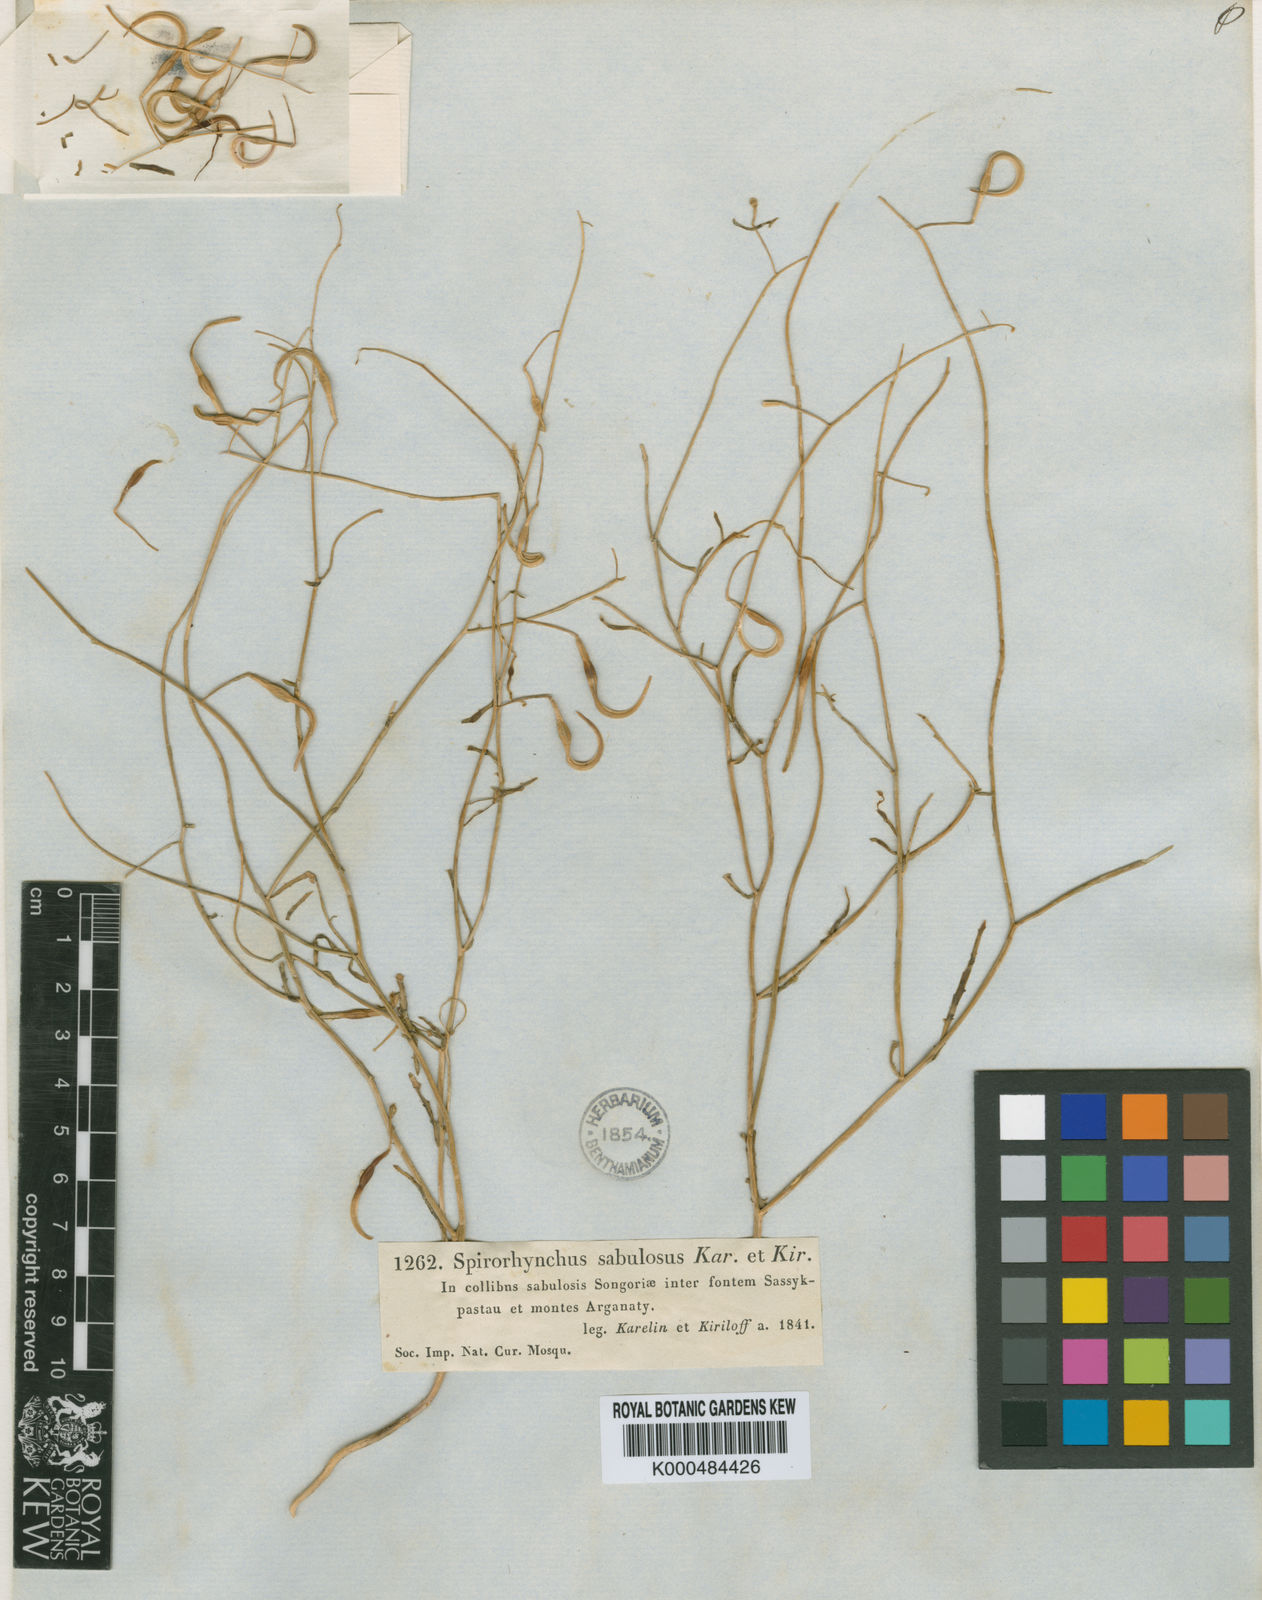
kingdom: Plantae
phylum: Tracheophyta
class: Magnoliopsida
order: Brassicales
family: Brassicaceae
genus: Goldbachia
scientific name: Goldbachia sabulosa
